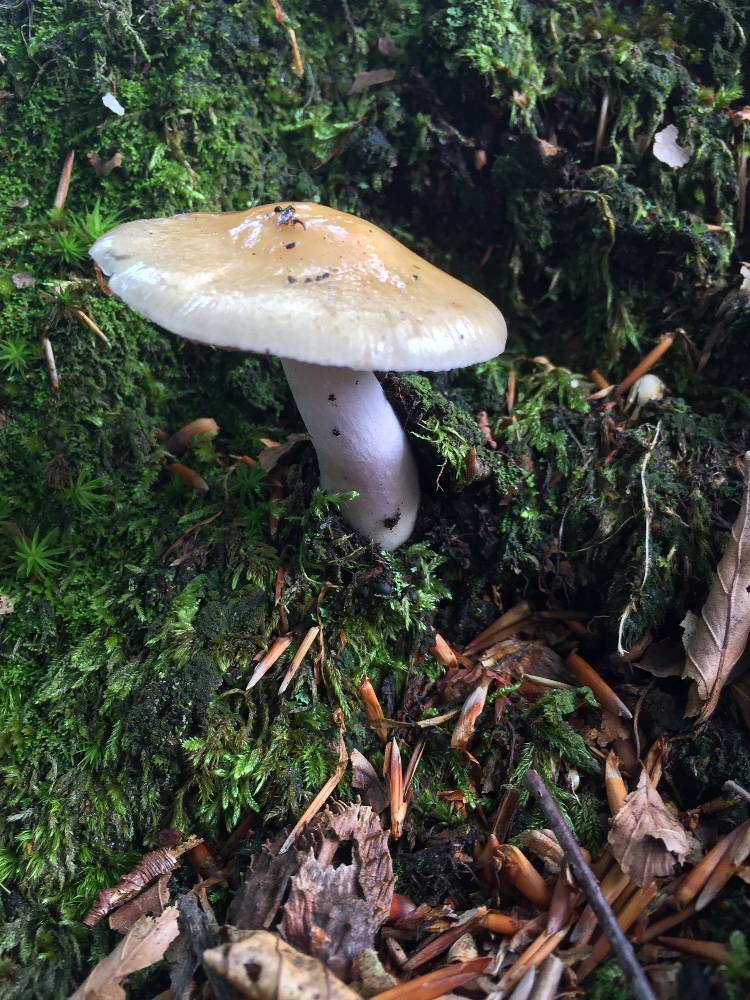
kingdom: Fungi
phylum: Basidiomycota
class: Agaricomycetes
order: Agaricales
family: Cortinariaceae
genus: Cortinarius
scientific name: Cortinarius elatior
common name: høj slørhat
